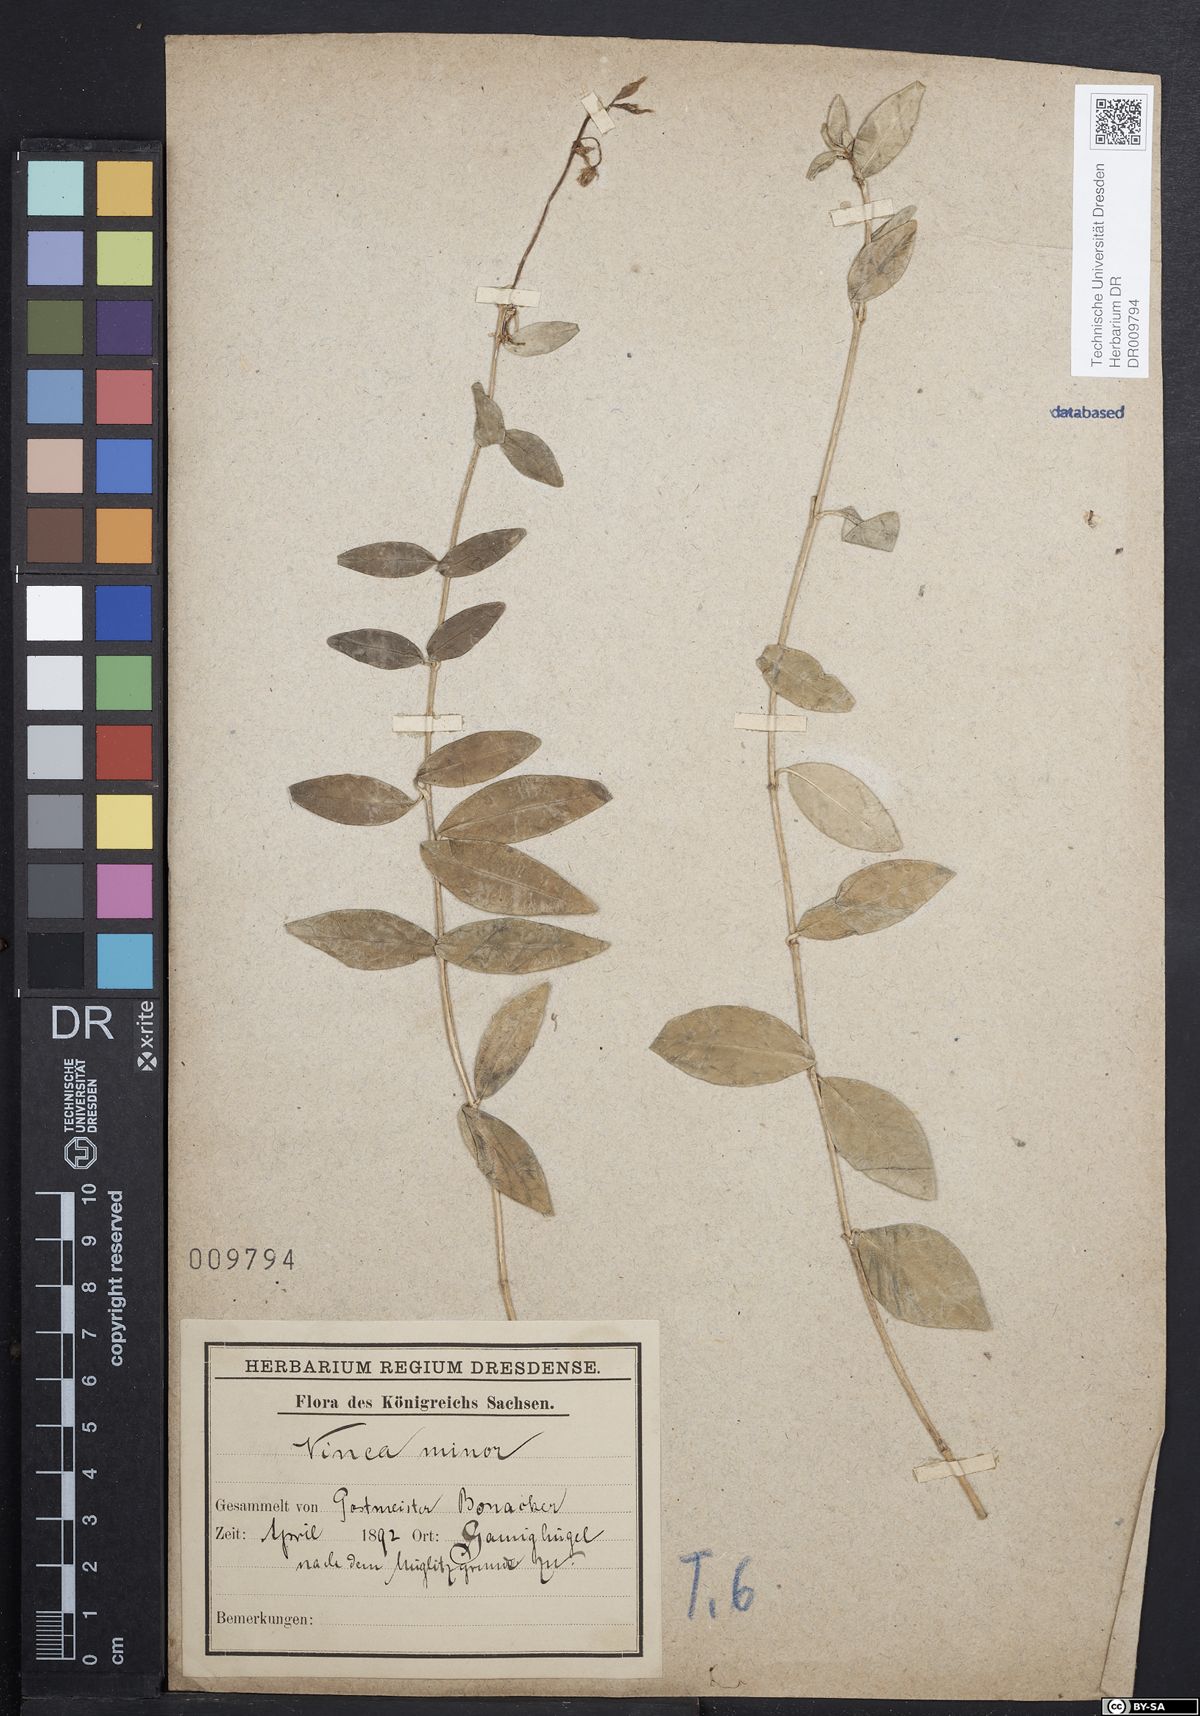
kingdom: Plantae
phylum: Tracheophyta
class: Magnoliopsida
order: Gentianales
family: Apocynaceae
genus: Vinca
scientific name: Vinca minor
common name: Lesser periwinkle
